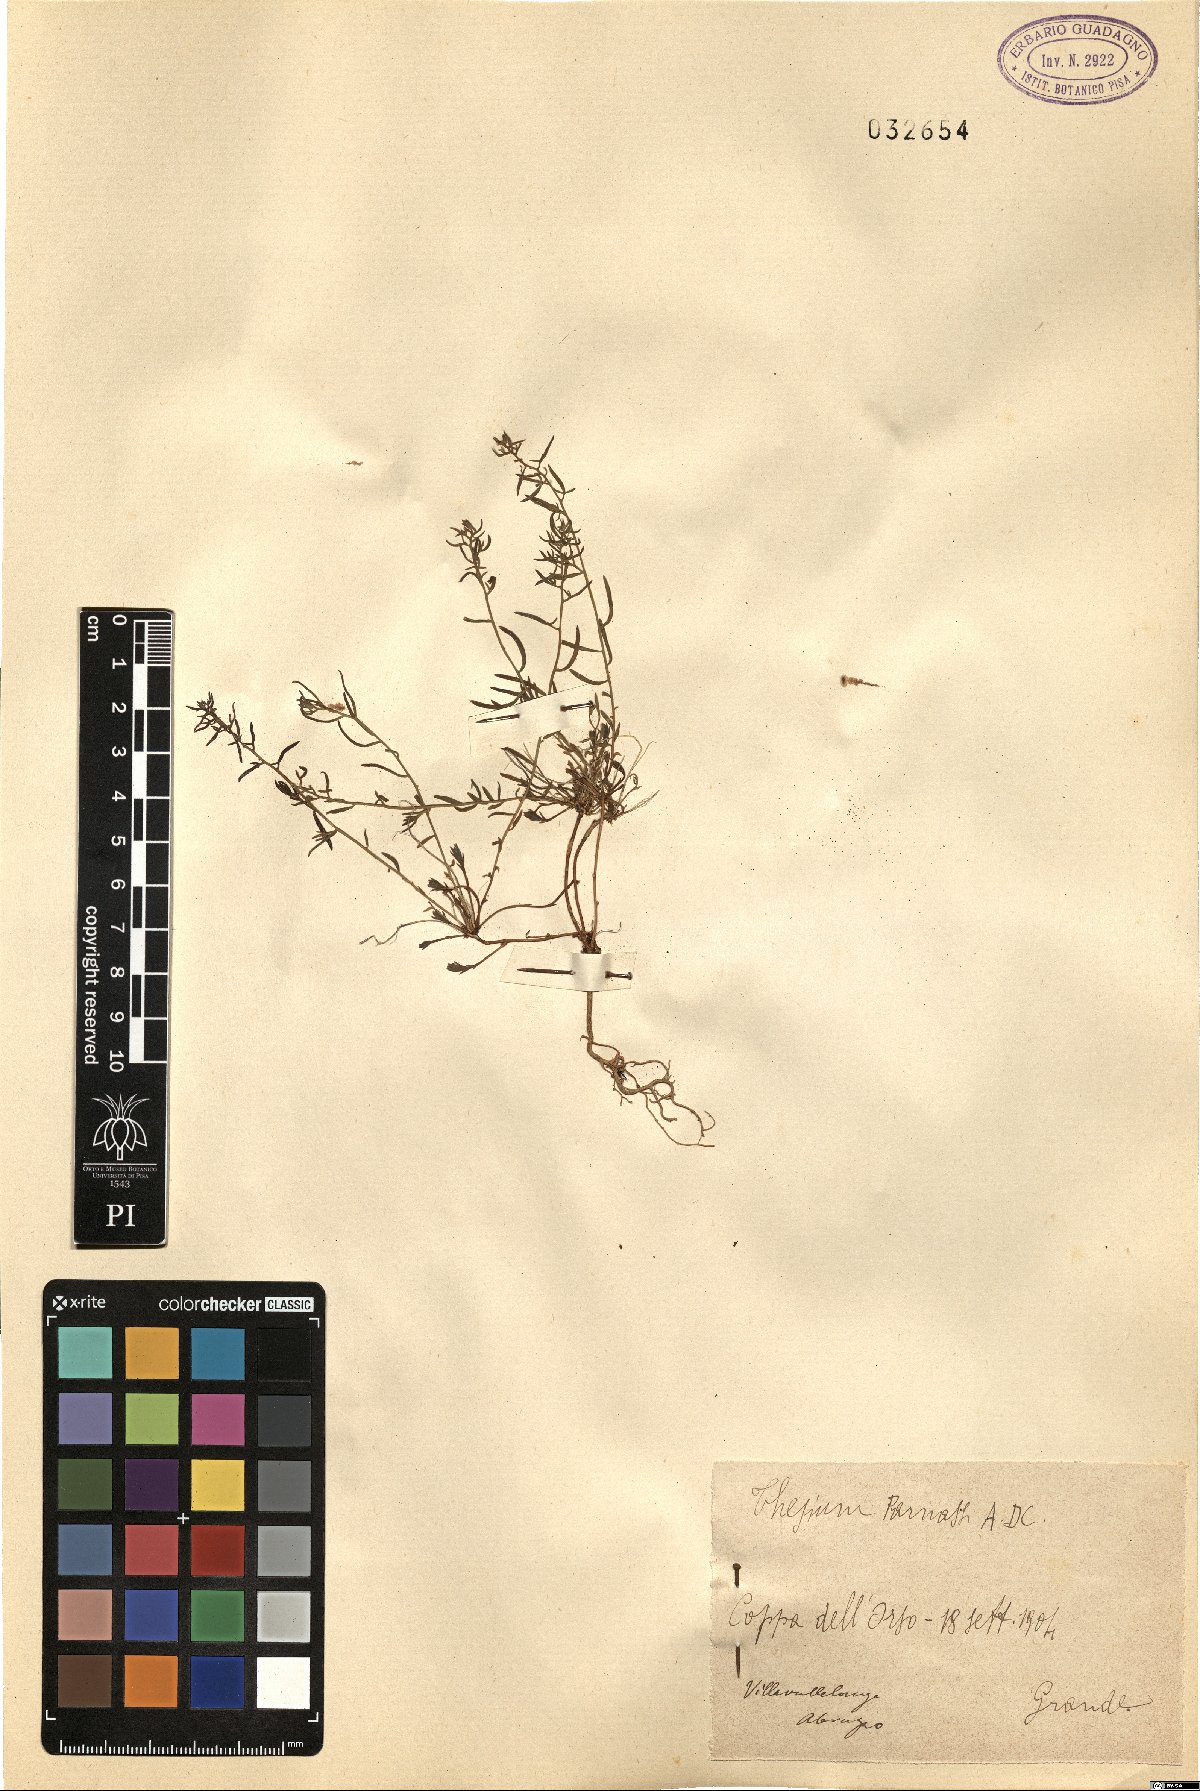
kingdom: Plantae
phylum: Tracheophyta
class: Magnoliopsida
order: Santalales
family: Thesiaceae
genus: Thesium
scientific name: Thesium parnassi
